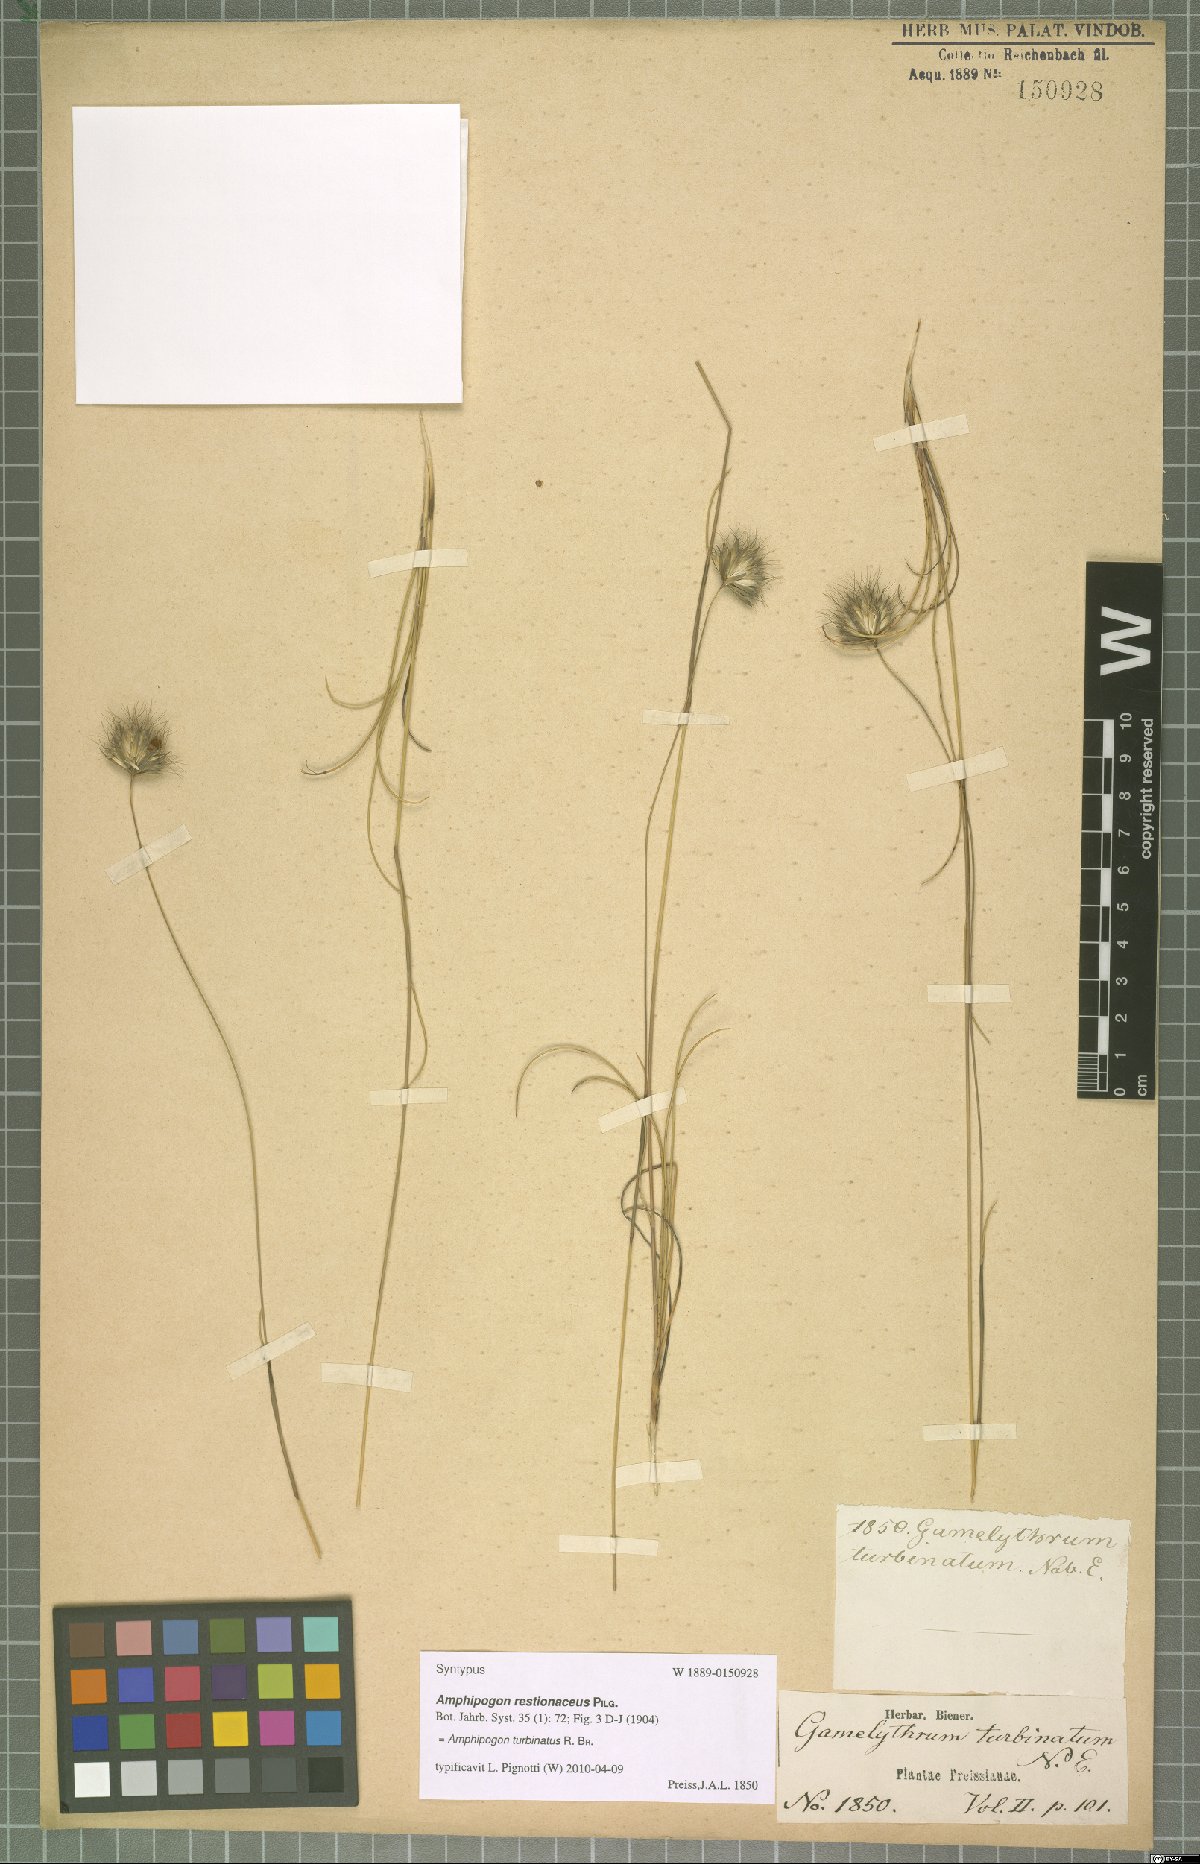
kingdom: Plantae
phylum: Tracheophyta
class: Liliopsida
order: Poales
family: Poaceae
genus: Amphipogon
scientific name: Amphipogon turbinatus
